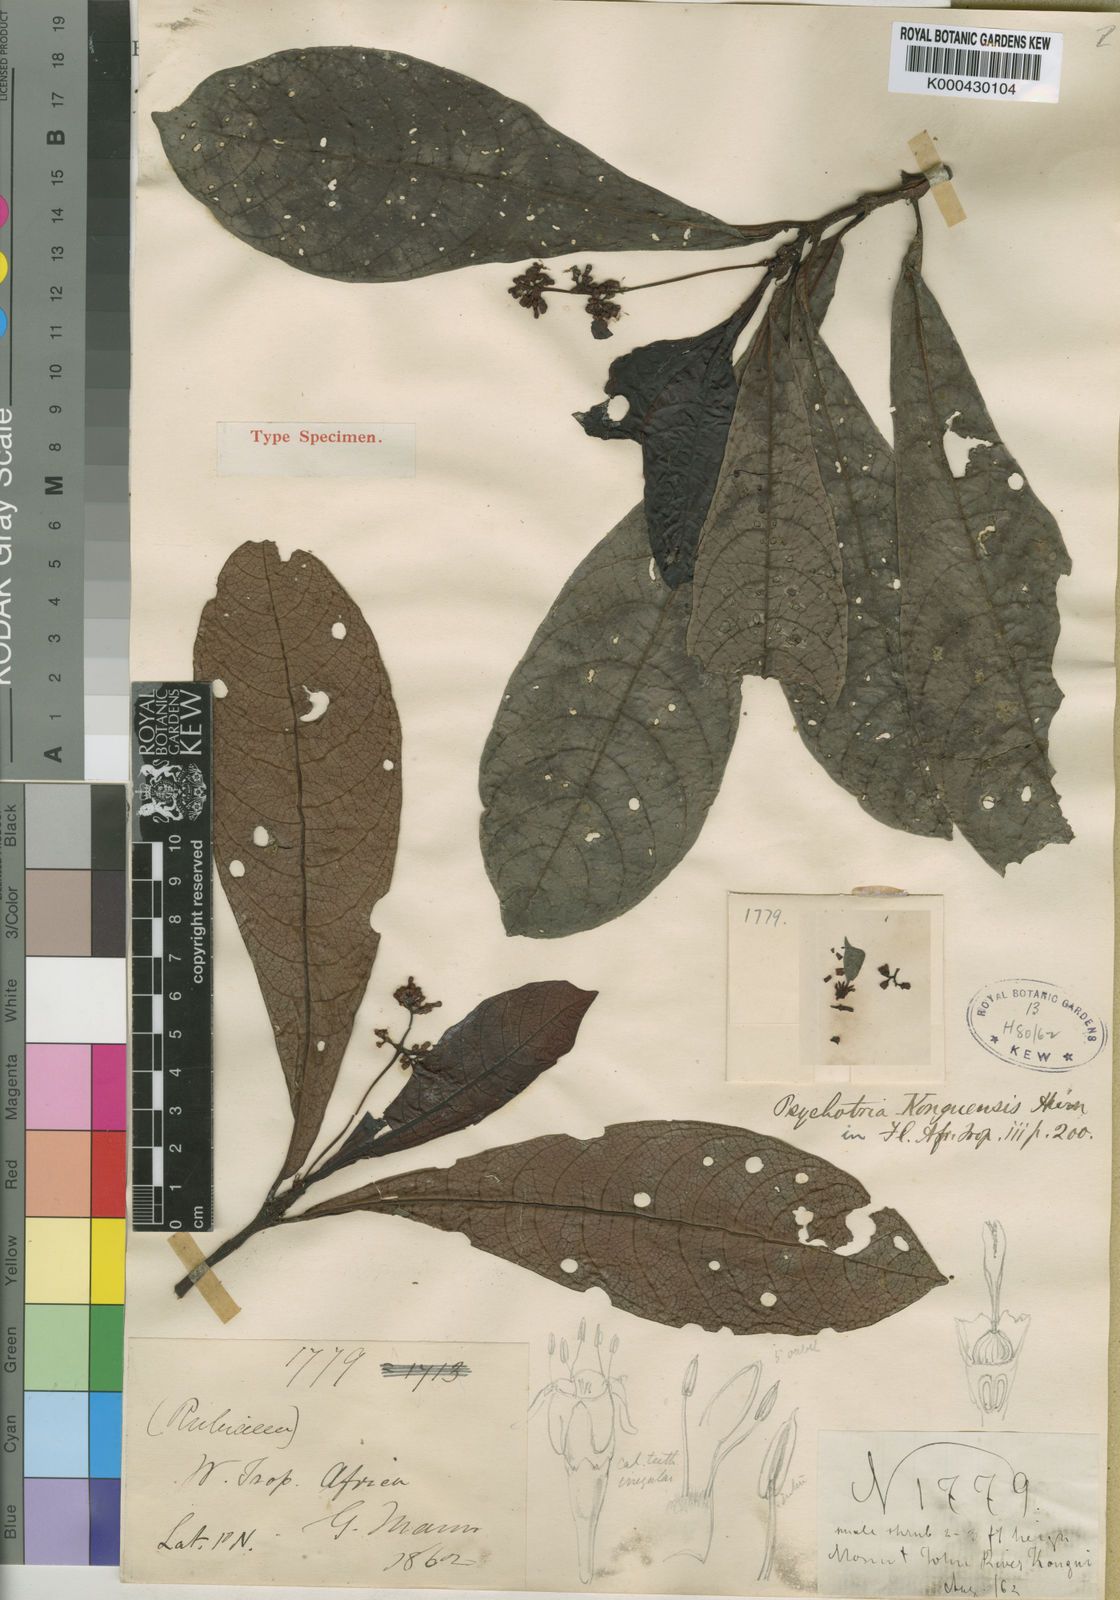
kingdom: Plantae
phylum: Tracheophyta
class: Magnoliopsida
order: Gentianales
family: Rubiaceae
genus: Psychotria
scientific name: Psychotria konguensis
